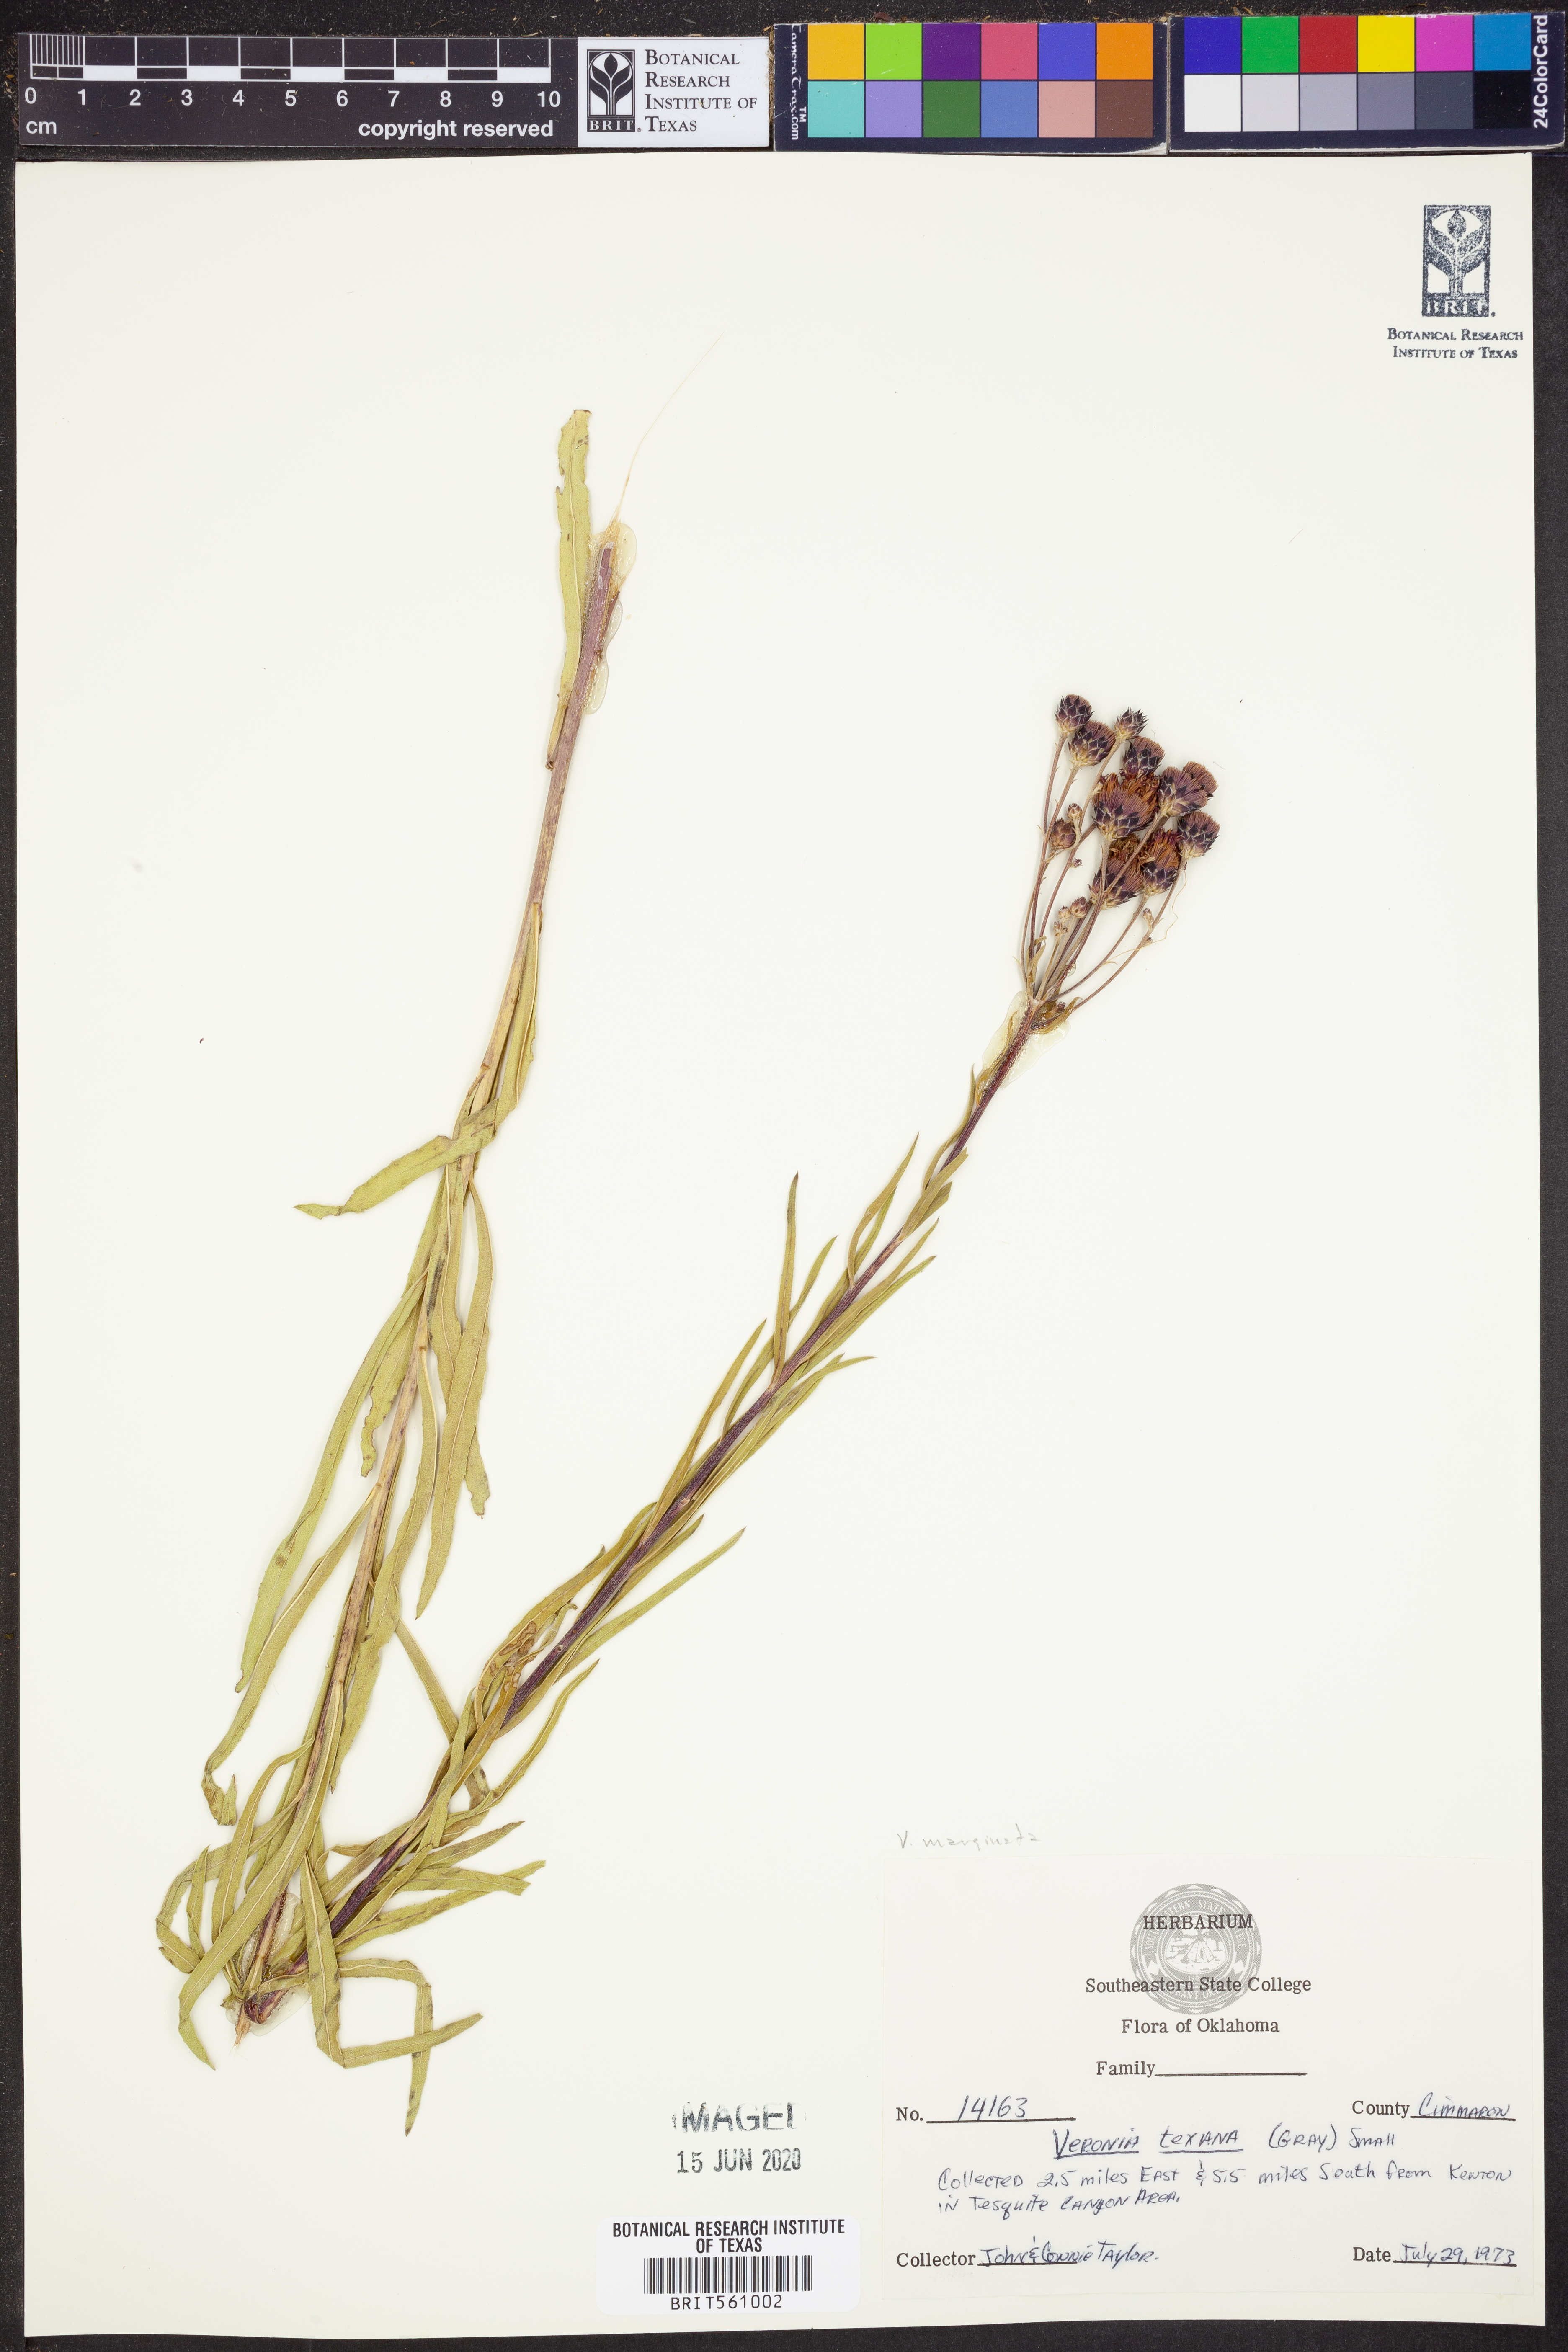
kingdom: Plantae
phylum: Tracheophyta
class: Magnoliopsida
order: Asterales
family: Asteraceae
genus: Vernonia
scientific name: Vernonia marginata
